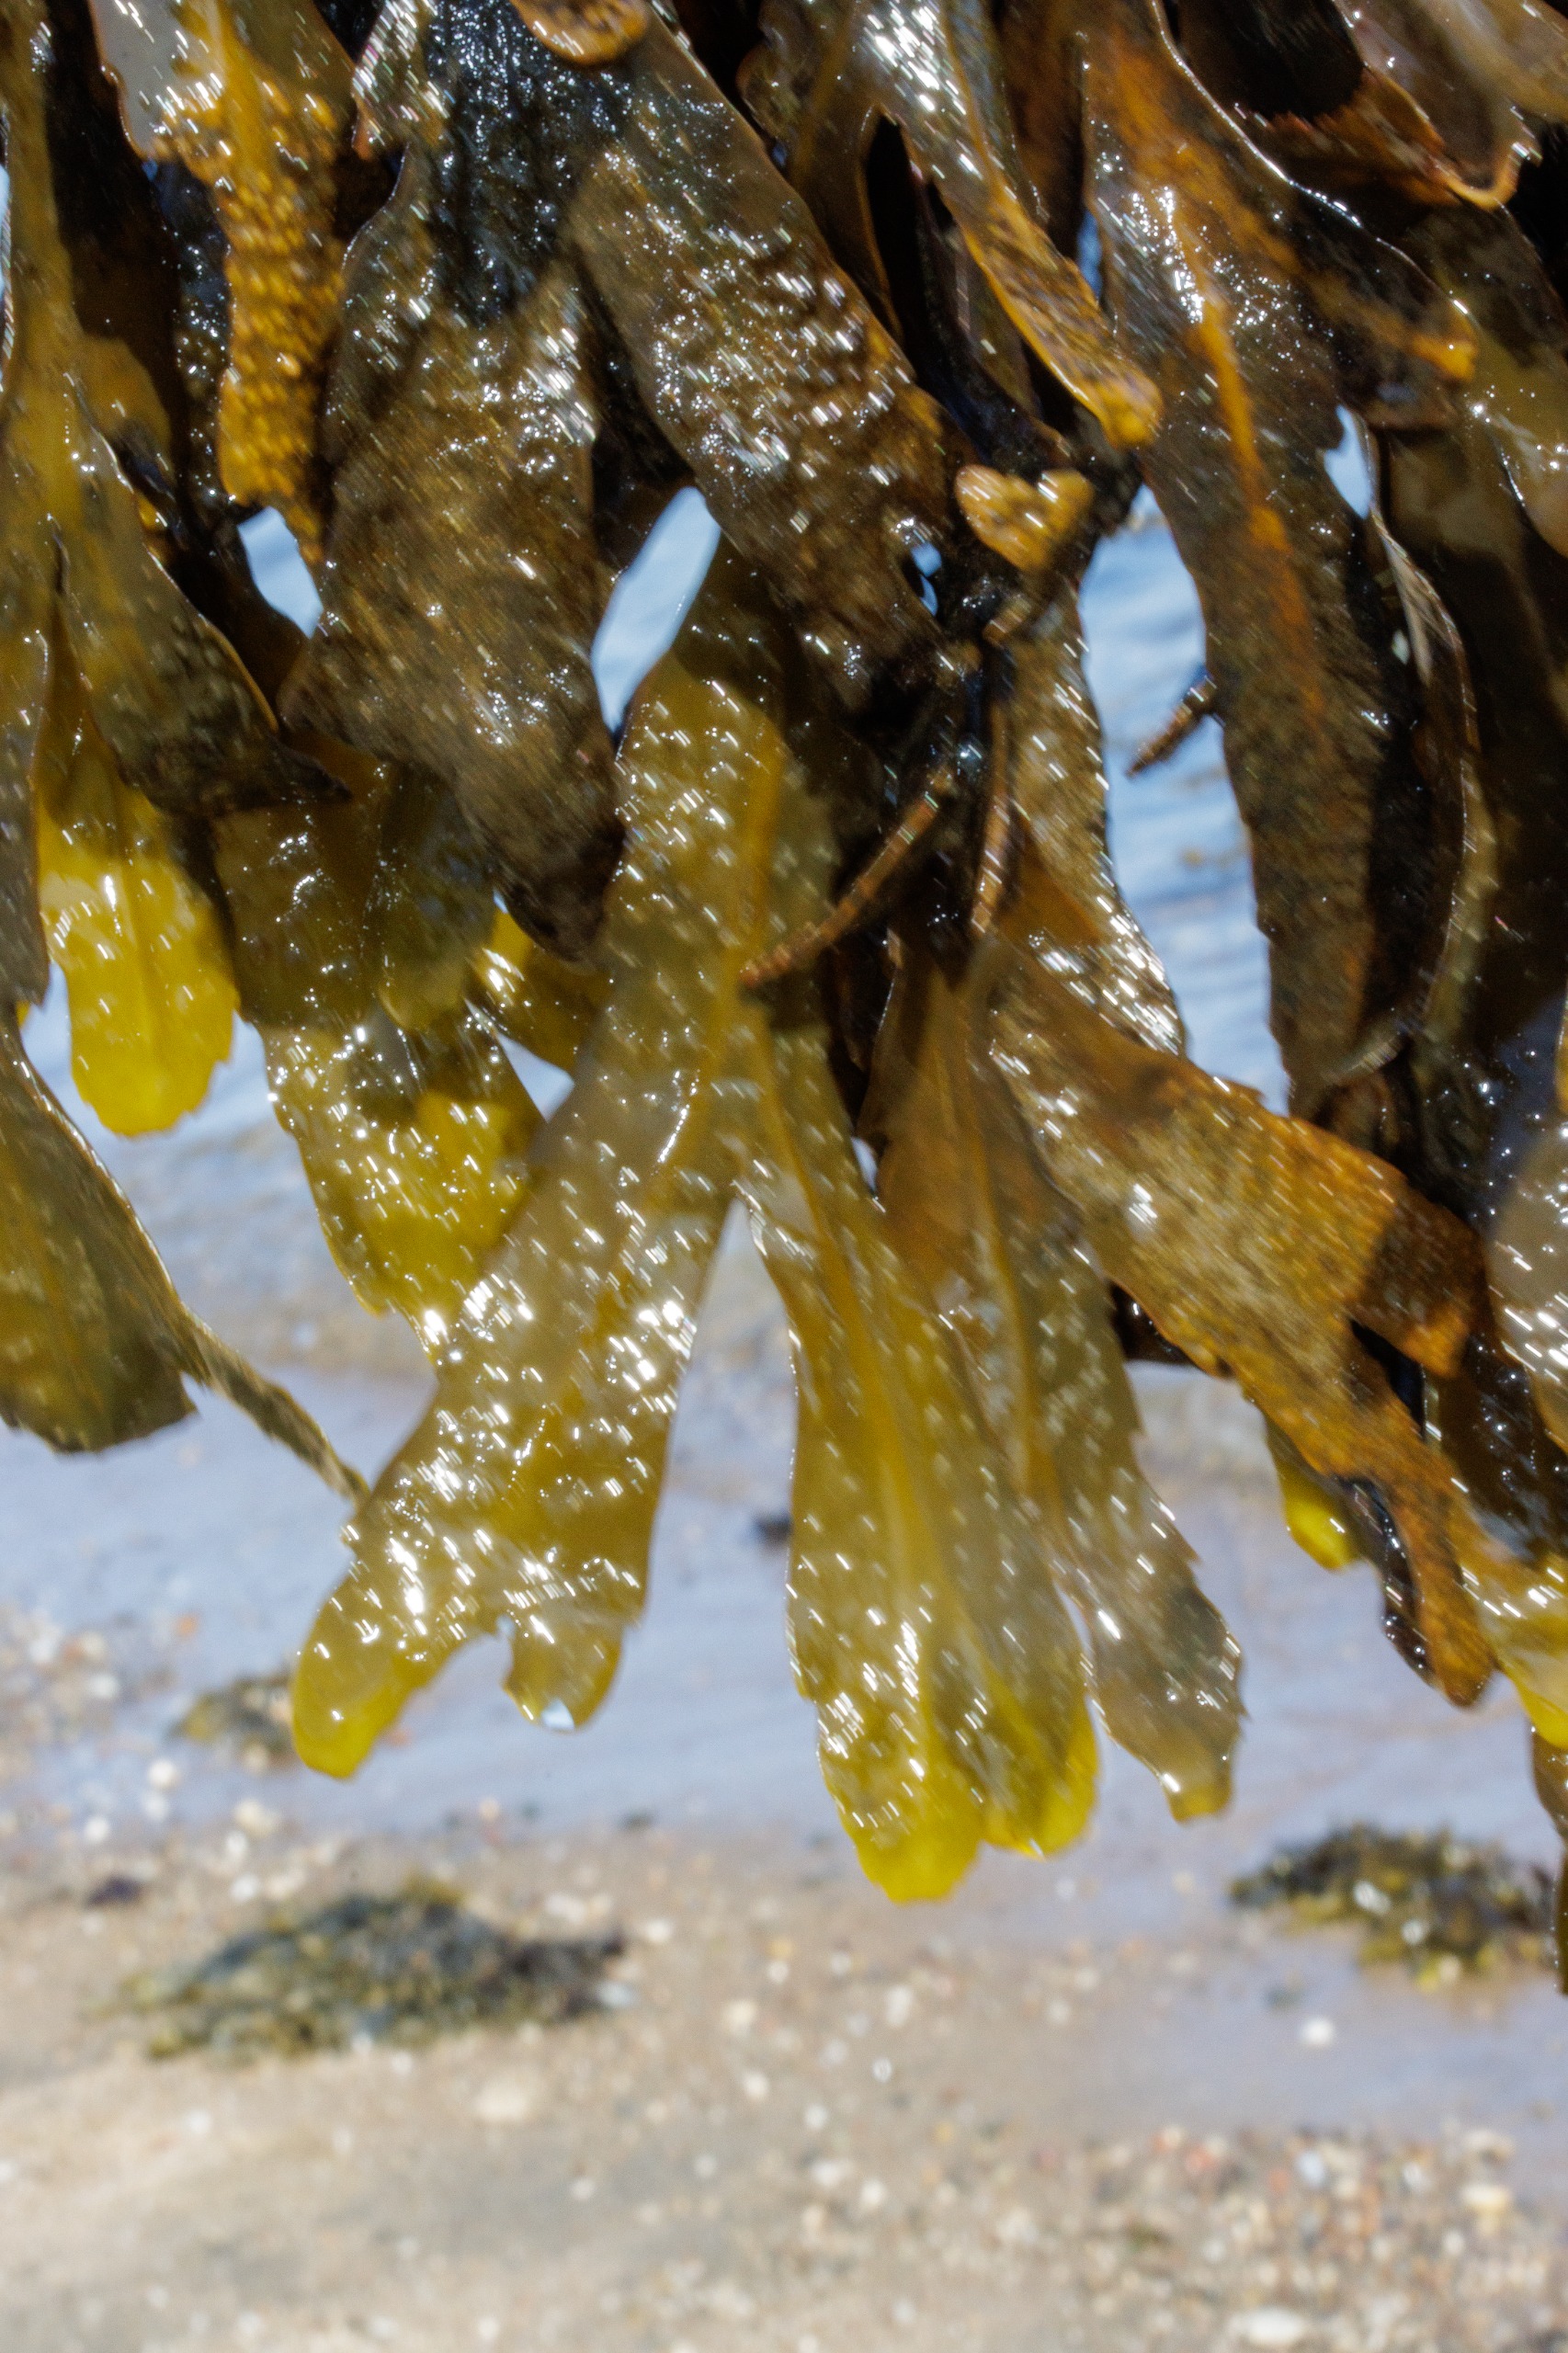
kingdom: Chromista
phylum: Ochrophyta
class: Phaeophyceae
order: Fucales
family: Fucaceae
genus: Fucus
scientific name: Fucus serratus
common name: Savtang
